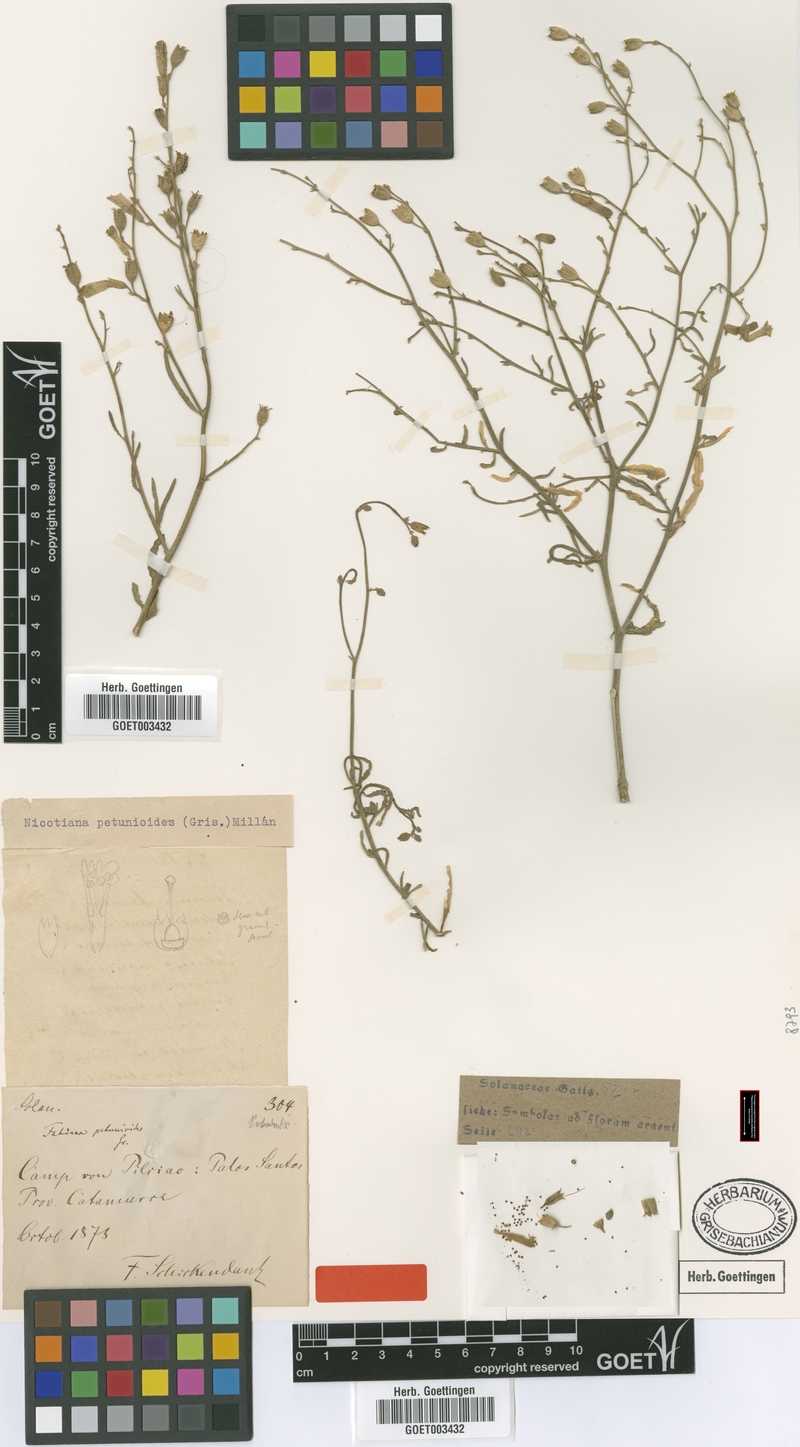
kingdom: Plantae
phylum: Tracheophyta
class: Magnoliopsida
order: Solanales
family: Solanaceae
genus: Nicotiana
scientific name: Nicotiana petunioides
